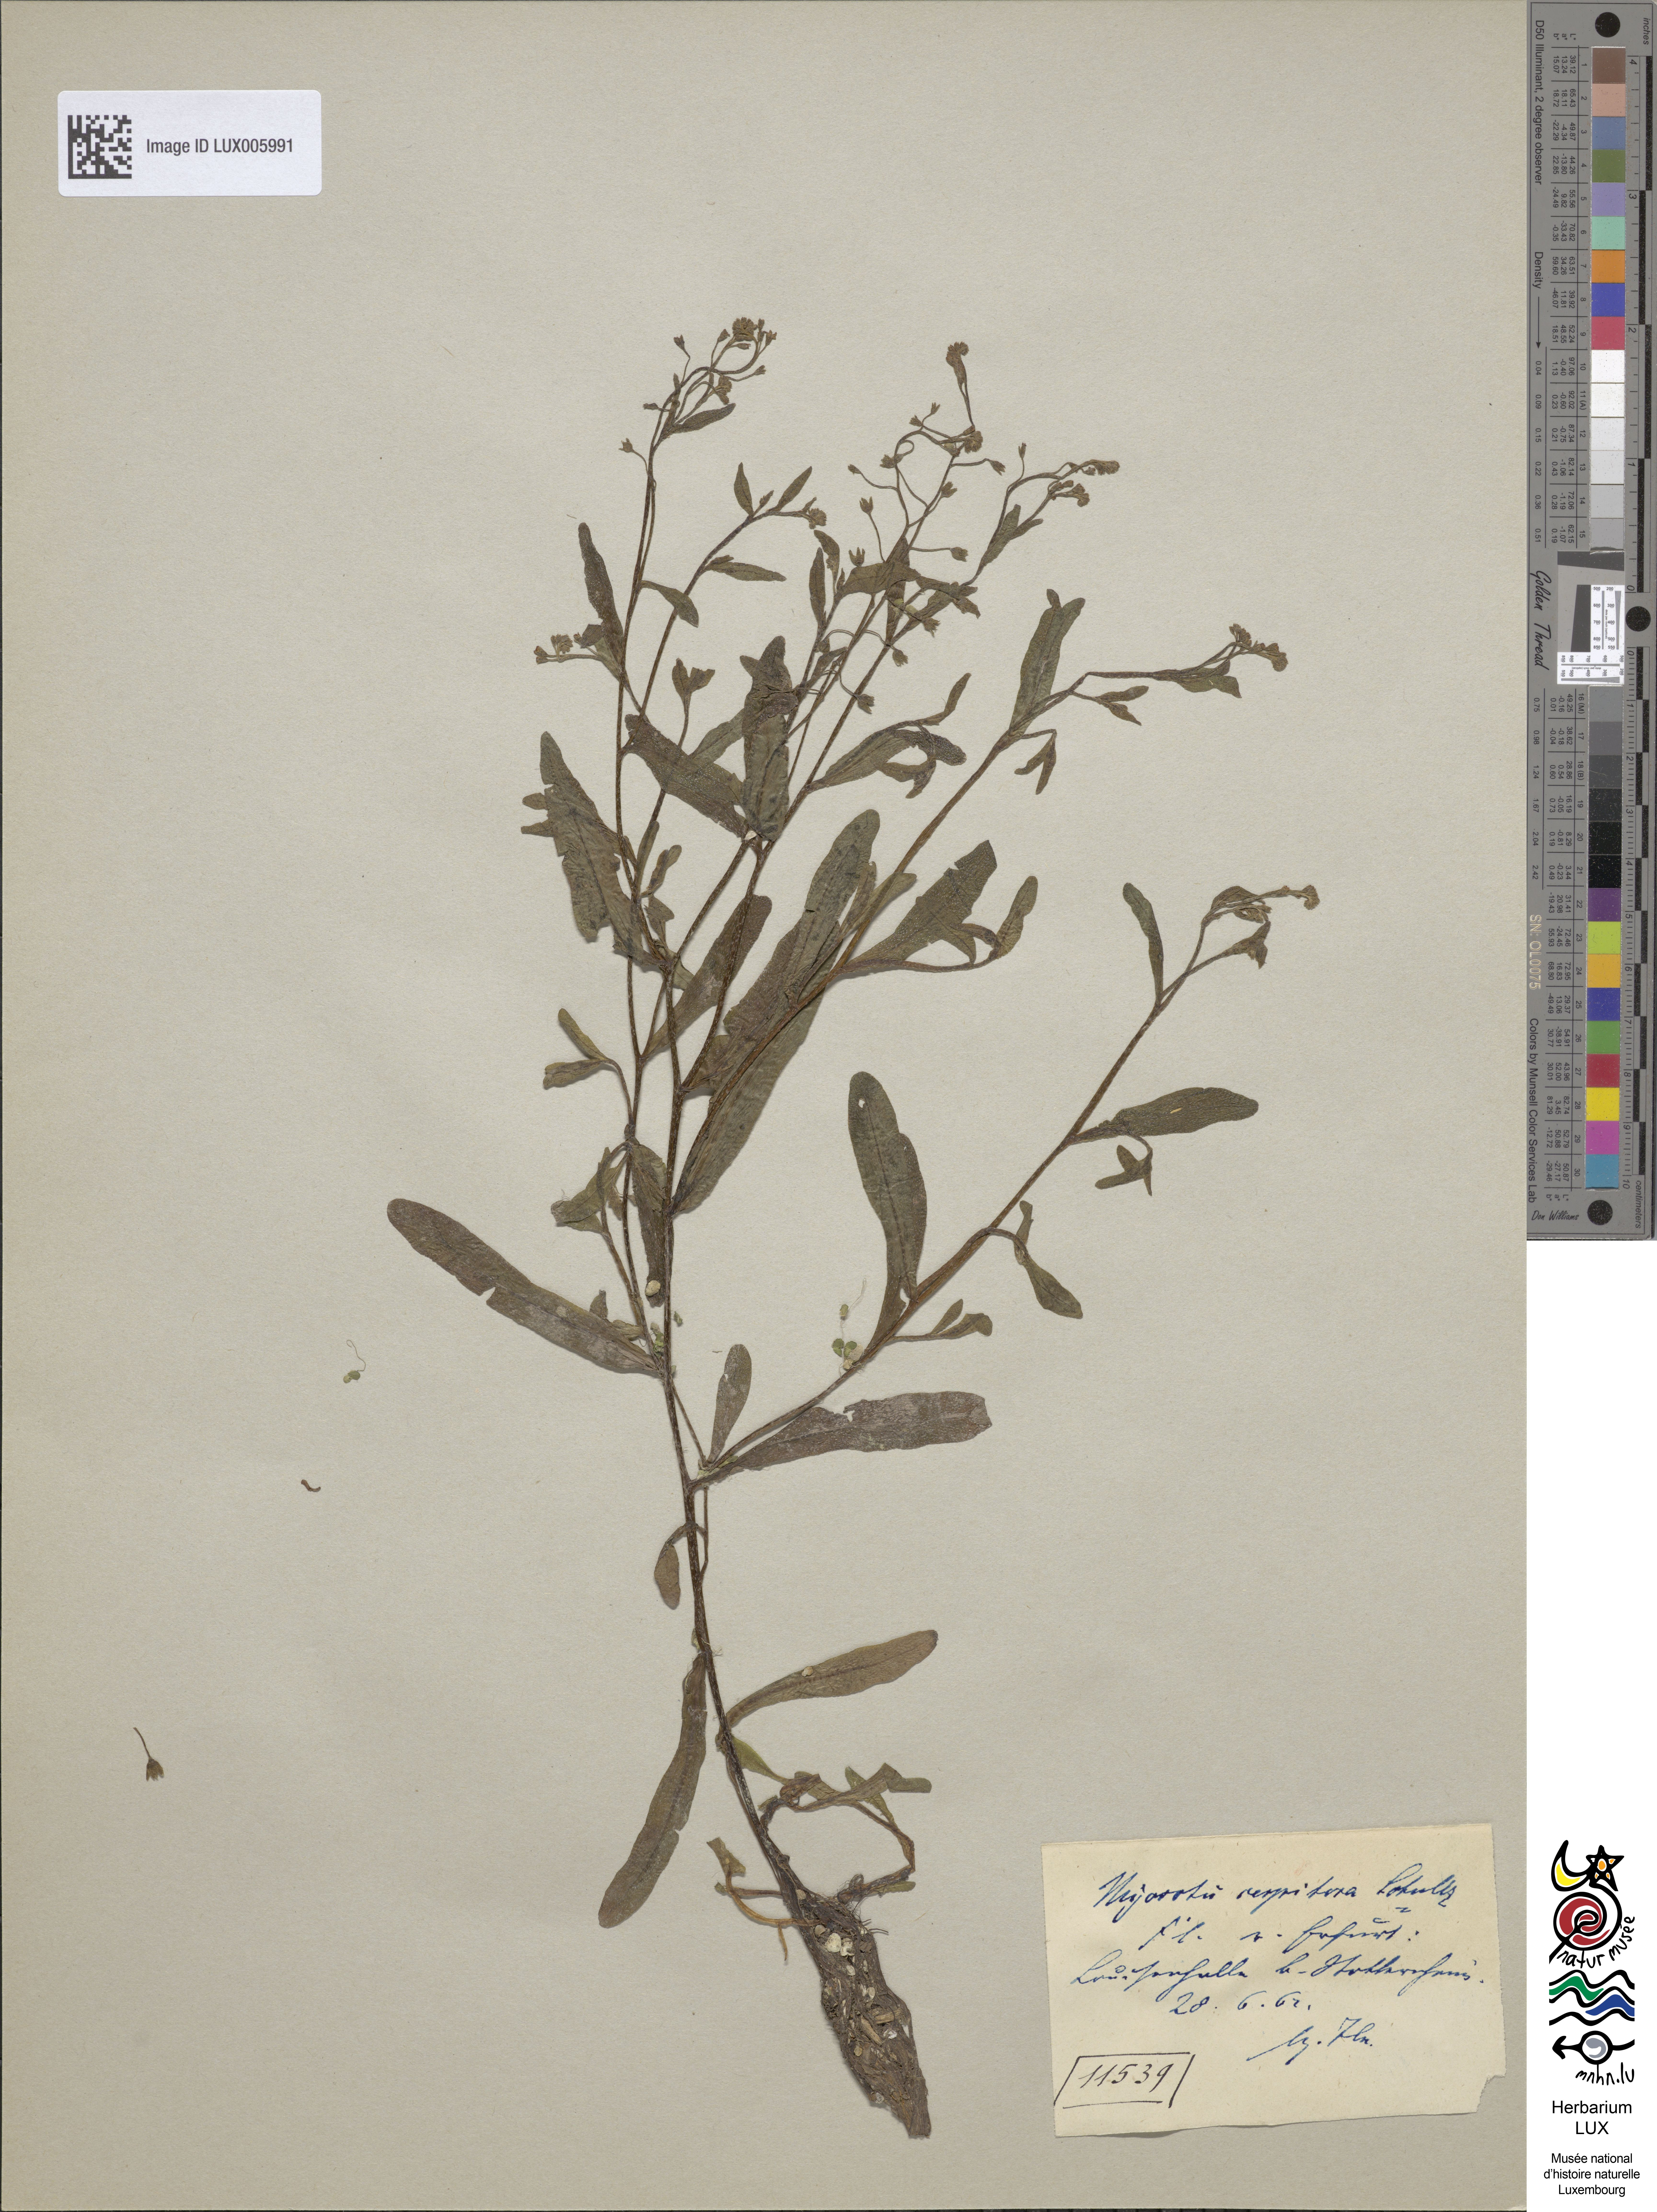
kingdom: Plantae
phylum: Tracheophyta
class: Magnoliopsida
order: Boraginales
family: Boraginaceae
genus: Myosotis
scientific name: Myosotis laxa
